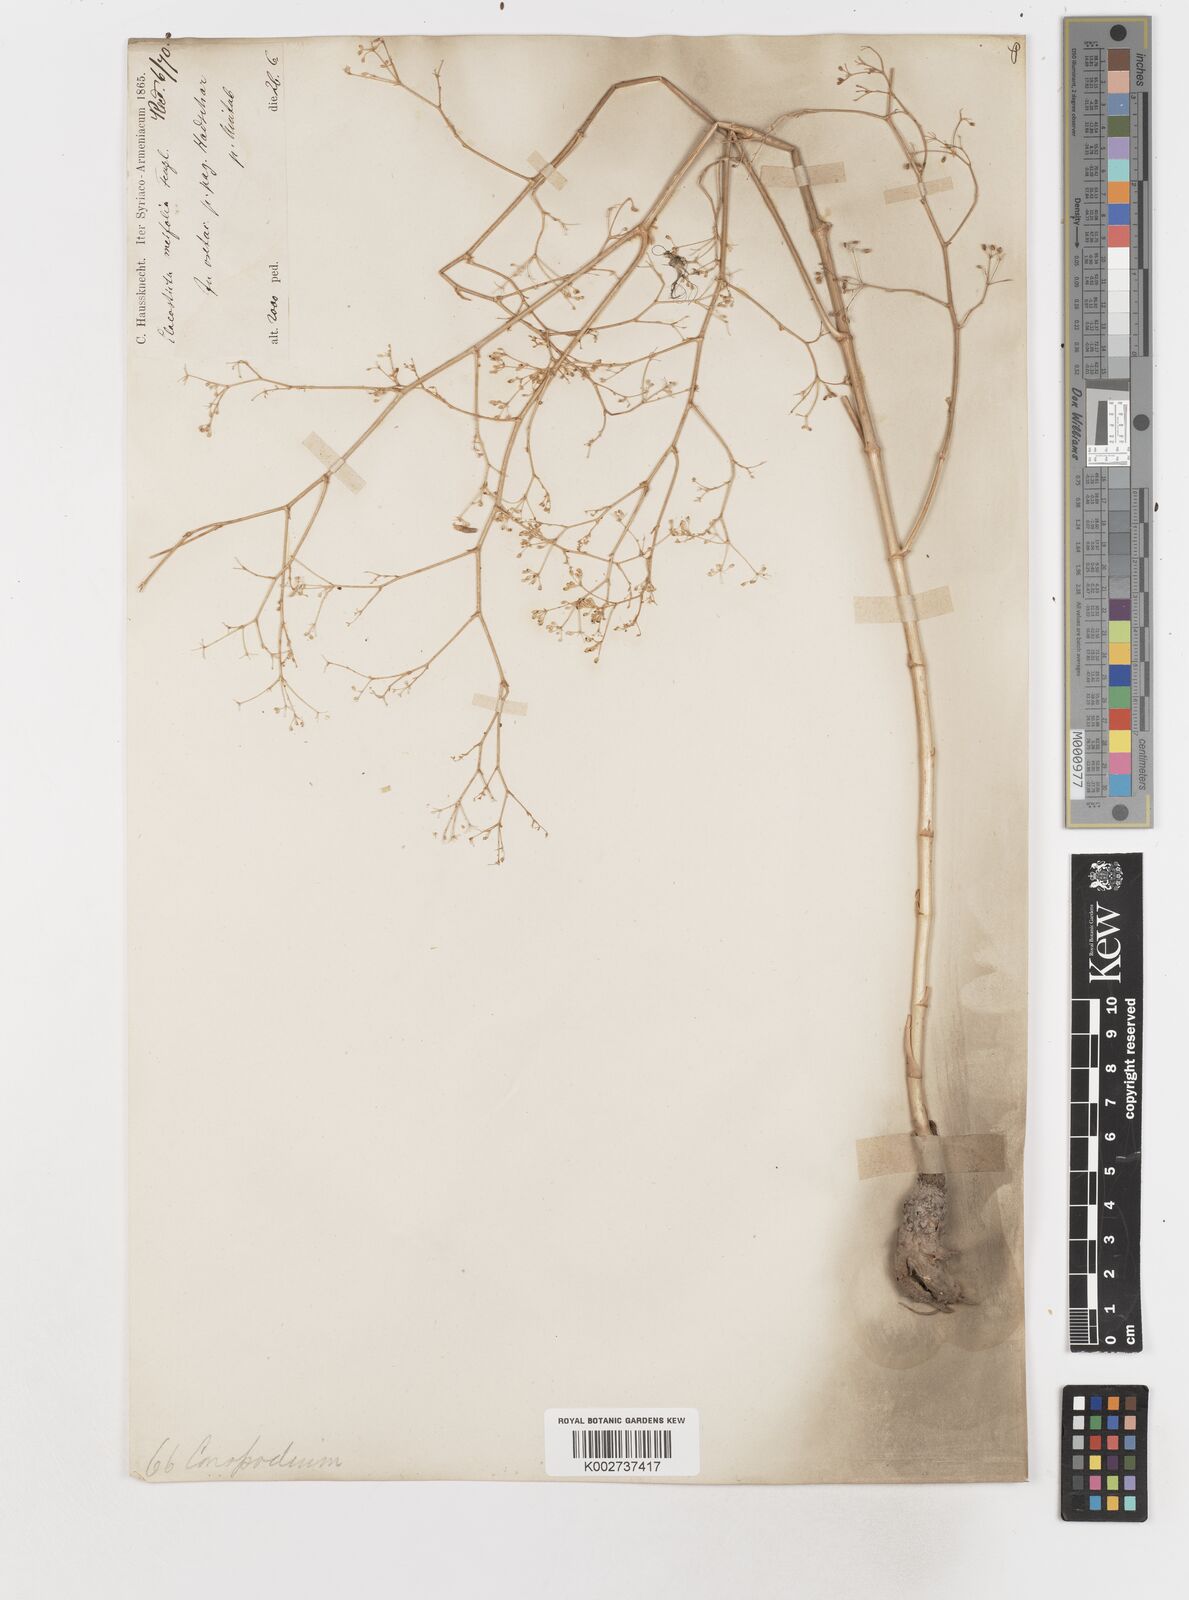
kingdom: Plantae
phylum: Tracheophyta
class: Magnoliopsida
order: Apiales
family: Apiaceae
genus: Elaeosticta
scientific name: Elaeosticta meifolia
